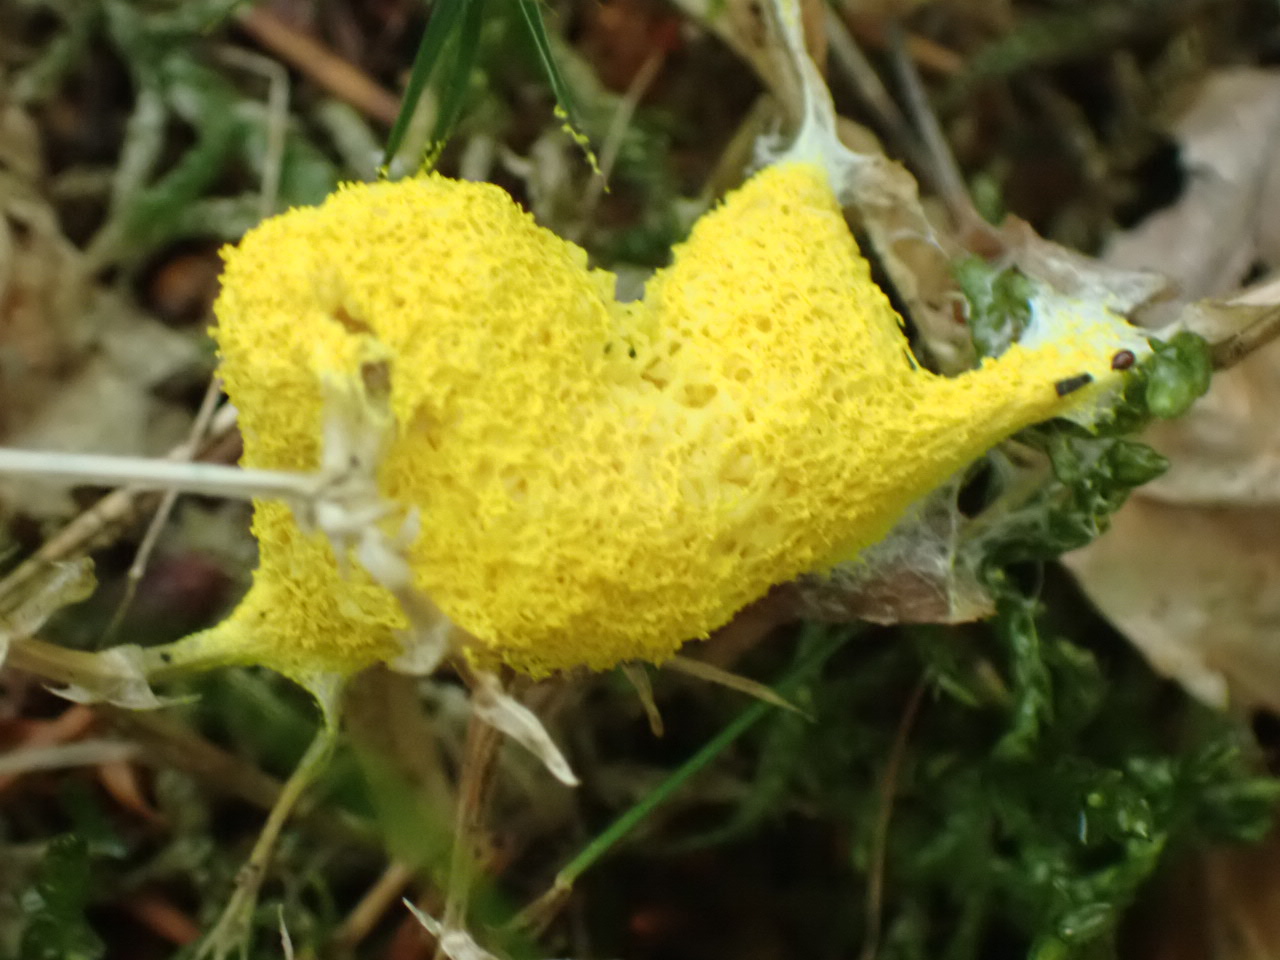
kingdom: Protozoa
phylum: Mycetozoa
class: Myxomycetes
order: Physarales
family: Physaraceae
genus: Fuligo
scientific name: Fuligo septica
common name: gul troldsmør
